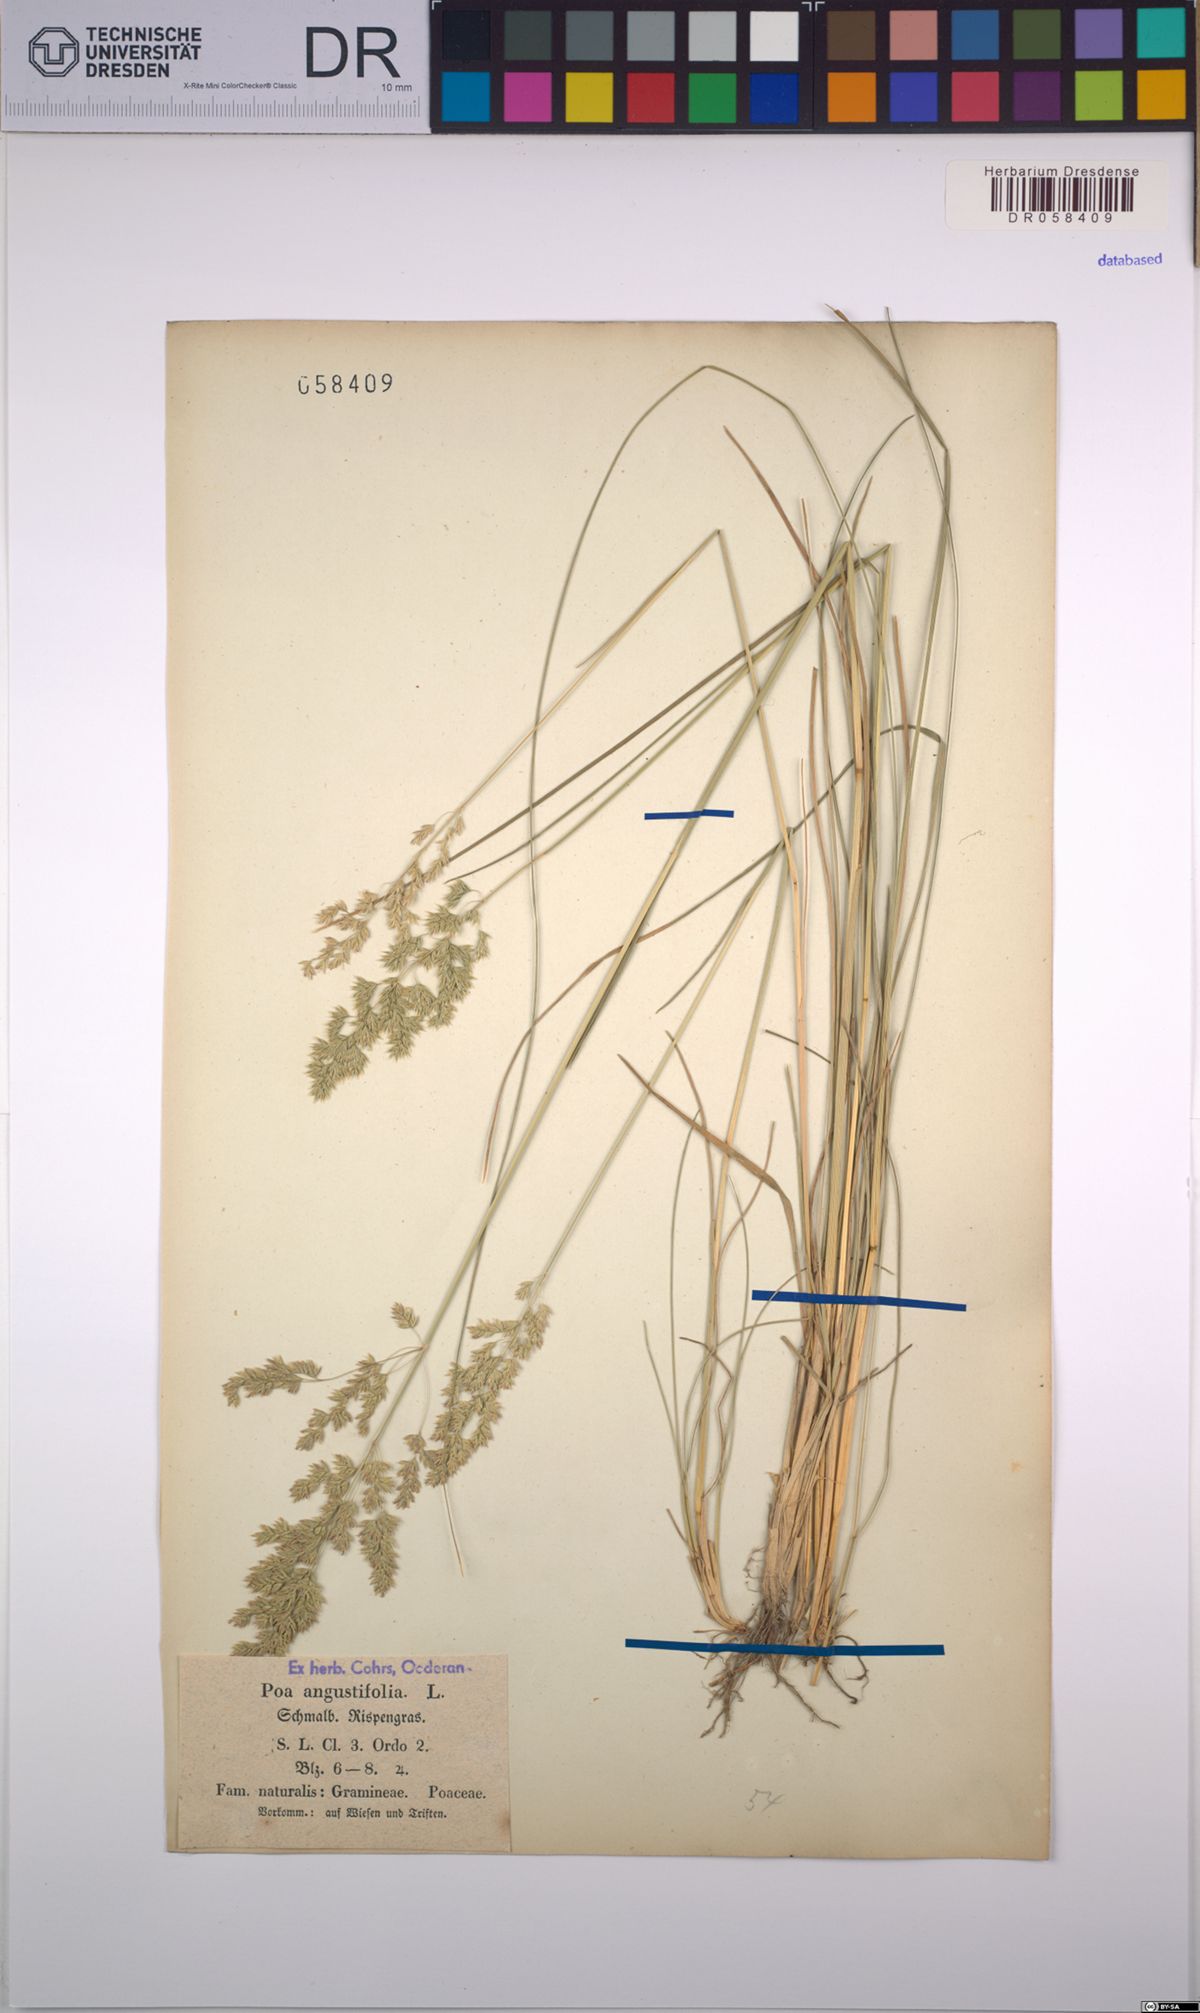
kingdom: Plantae
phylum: Tracheophyta
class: Liliopsida
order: Poales
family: Poaceae
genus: Poa
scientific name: Poa angustifolia
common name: Narrow-leaved meadow-grass
